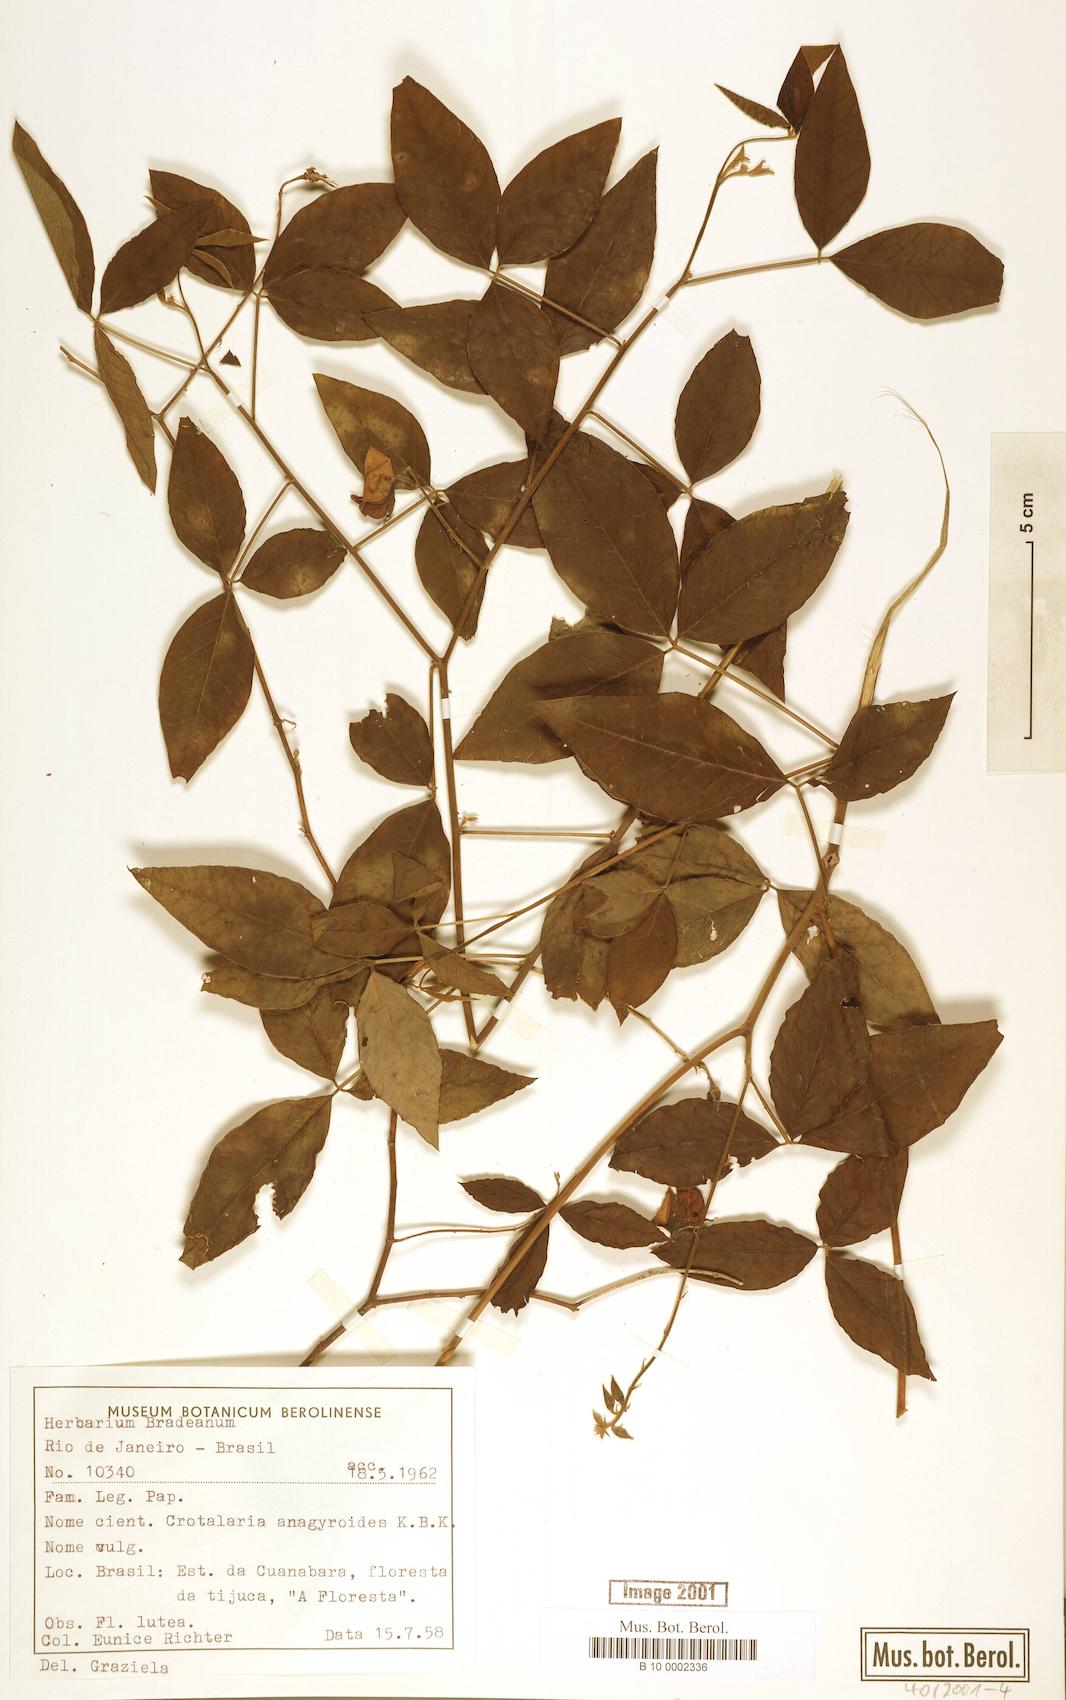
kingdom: Plantae
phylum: Tracheophyta
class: Magnoliopsida
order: Fabales
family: Fabaceae
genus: Crotalaria
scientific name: Crotalaria micans
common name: Caracas rattlebox
